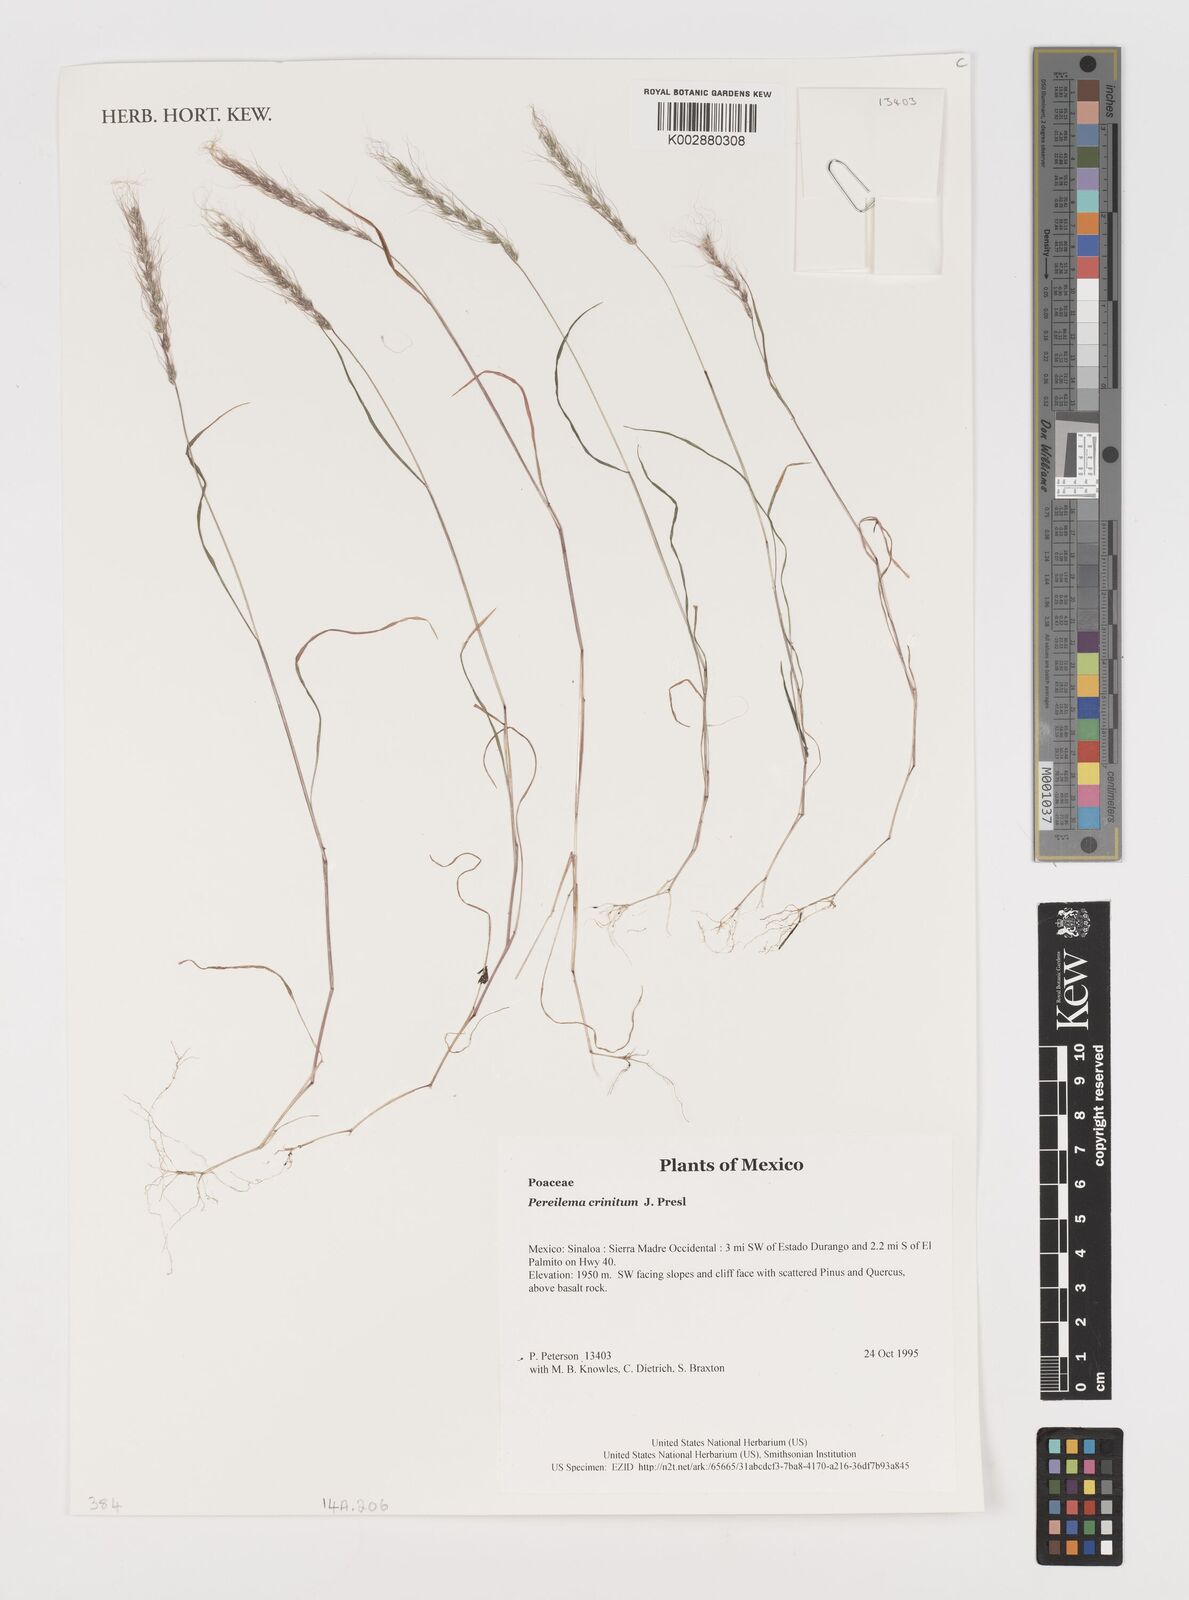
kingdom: Plantae
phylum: Tracheophyta
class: Liliopsida
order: Poales
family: Poaceae
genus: Muhlenbergia
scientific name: Muhlenbergia pereilema
